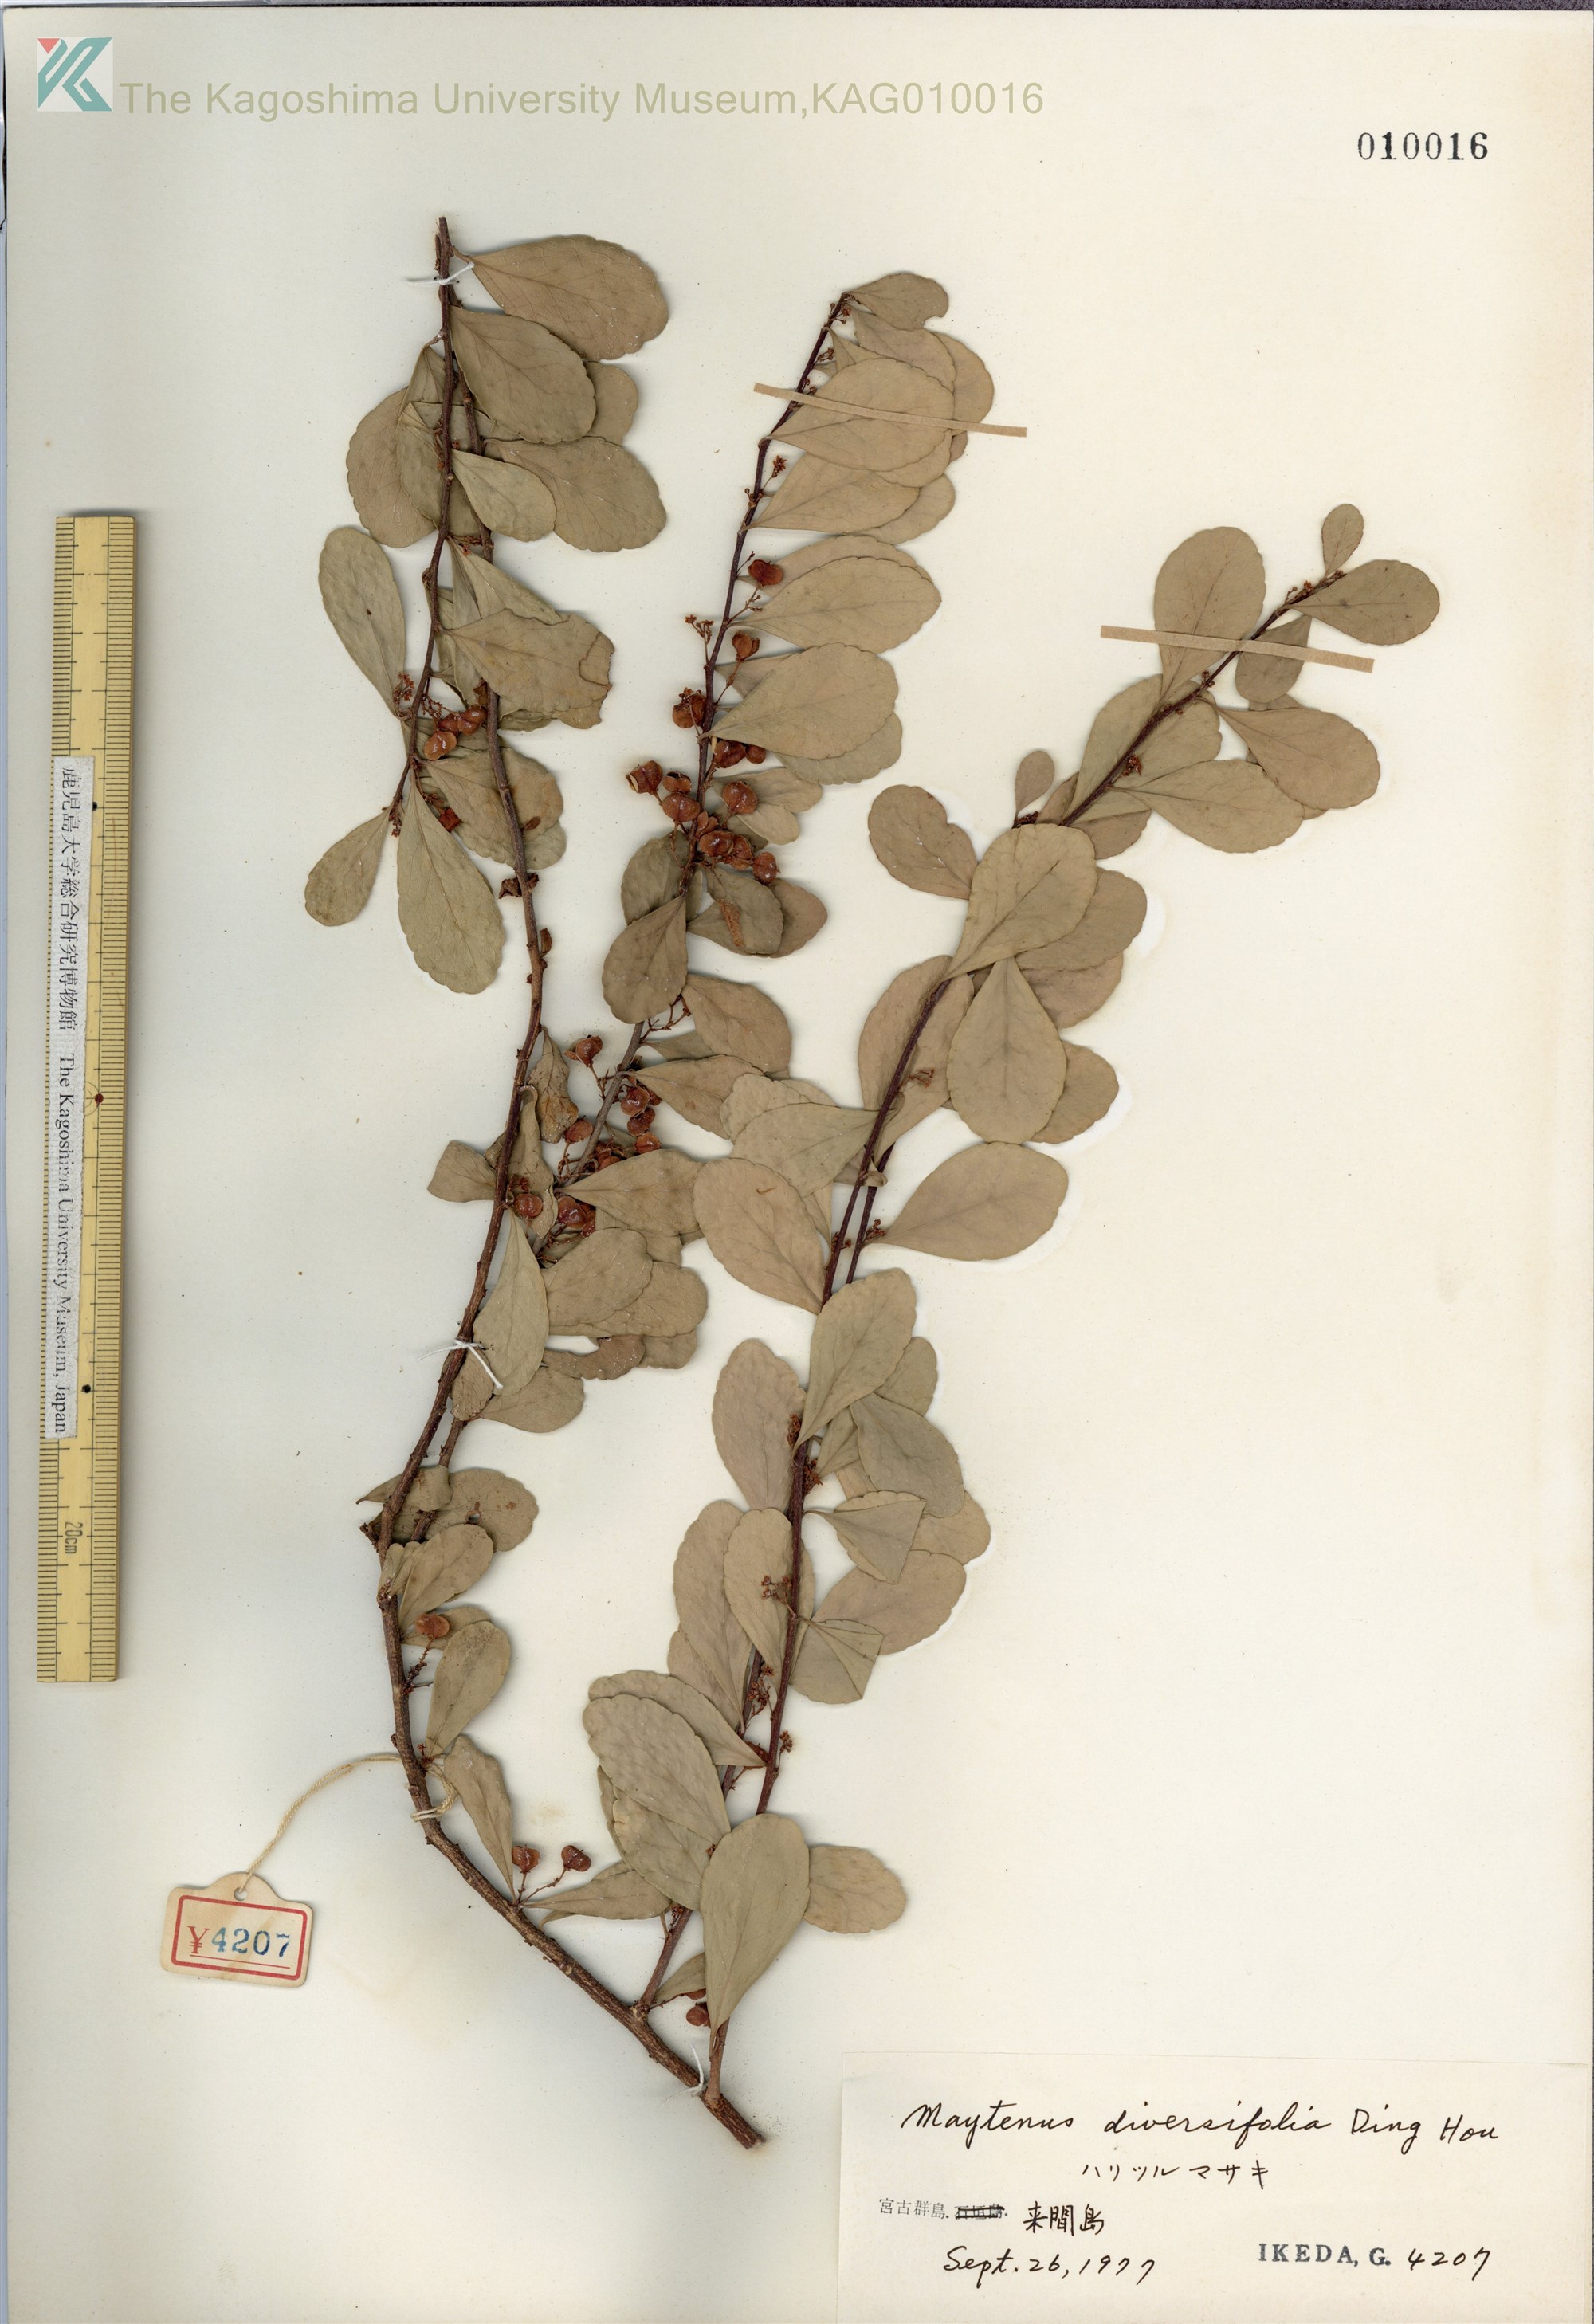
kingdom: Plantae
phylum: Tracheophyta
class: Magnoliopsida
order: Celastrales
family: Celastraceae
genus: Gymnosporia
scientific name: Gymnosporia diversifolia
